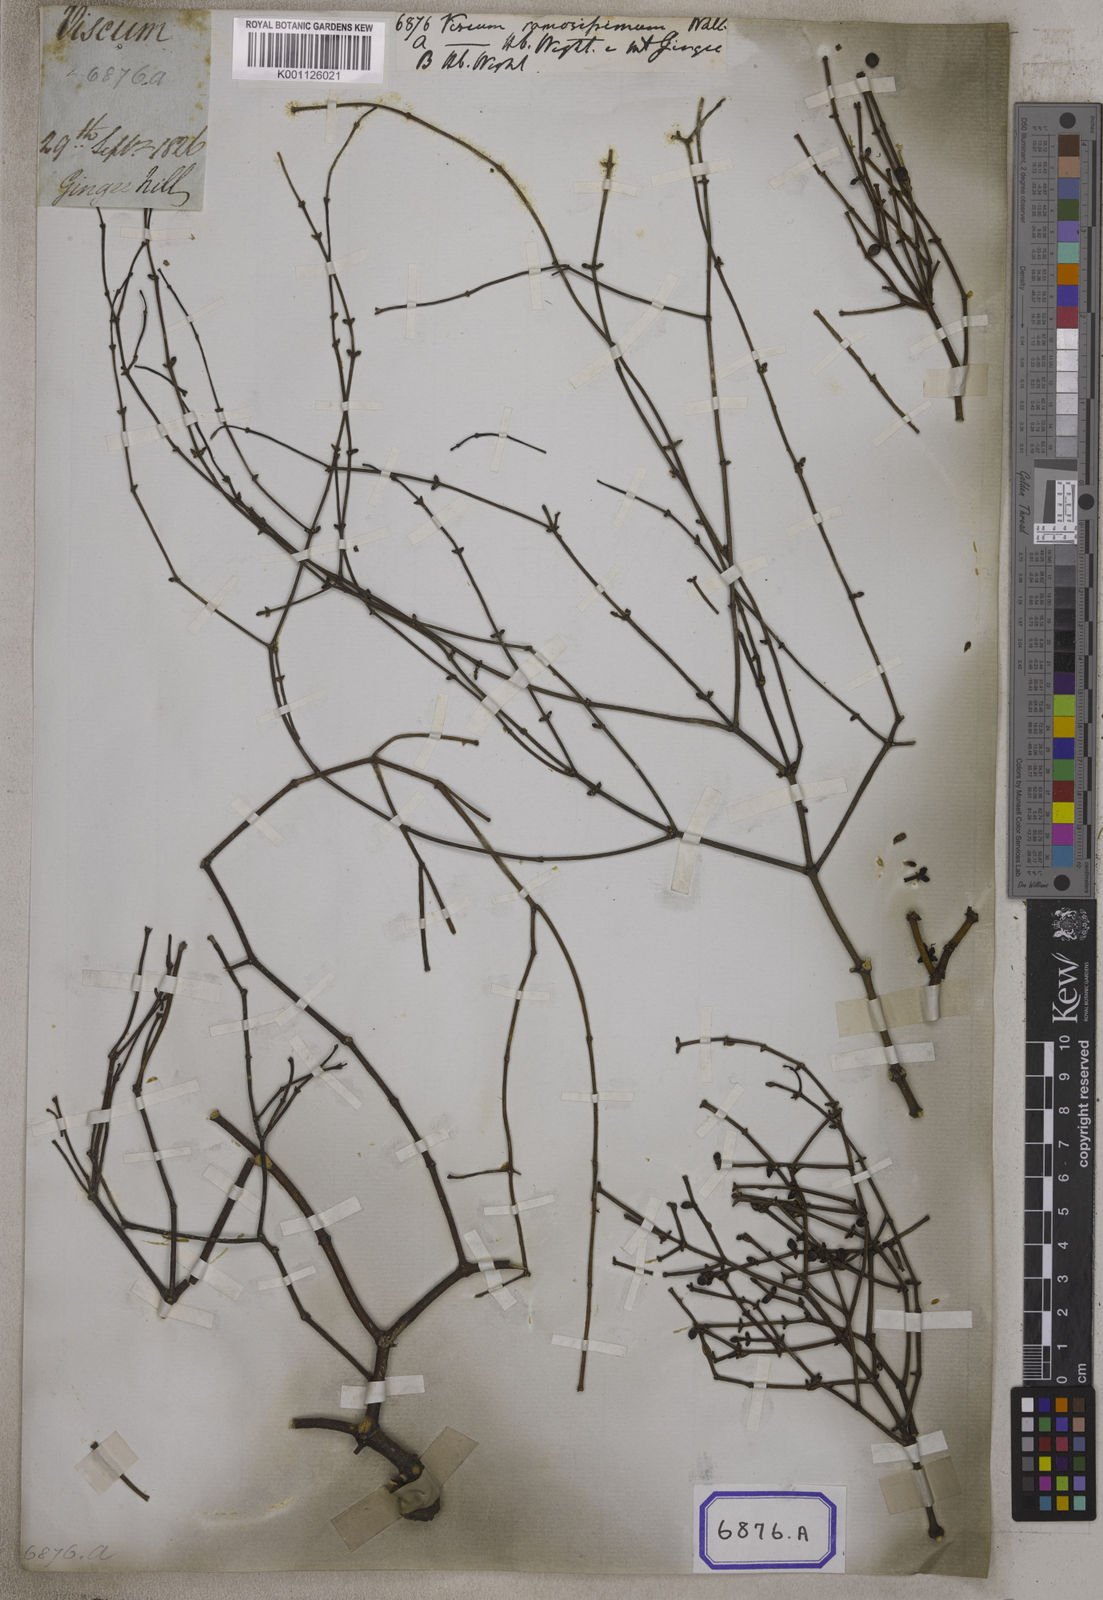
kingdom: Plantae
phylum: Tracheophyta
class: Magnoliopsida
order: Santalales
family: Viscaceae
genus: Viscum
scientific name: Viscum
